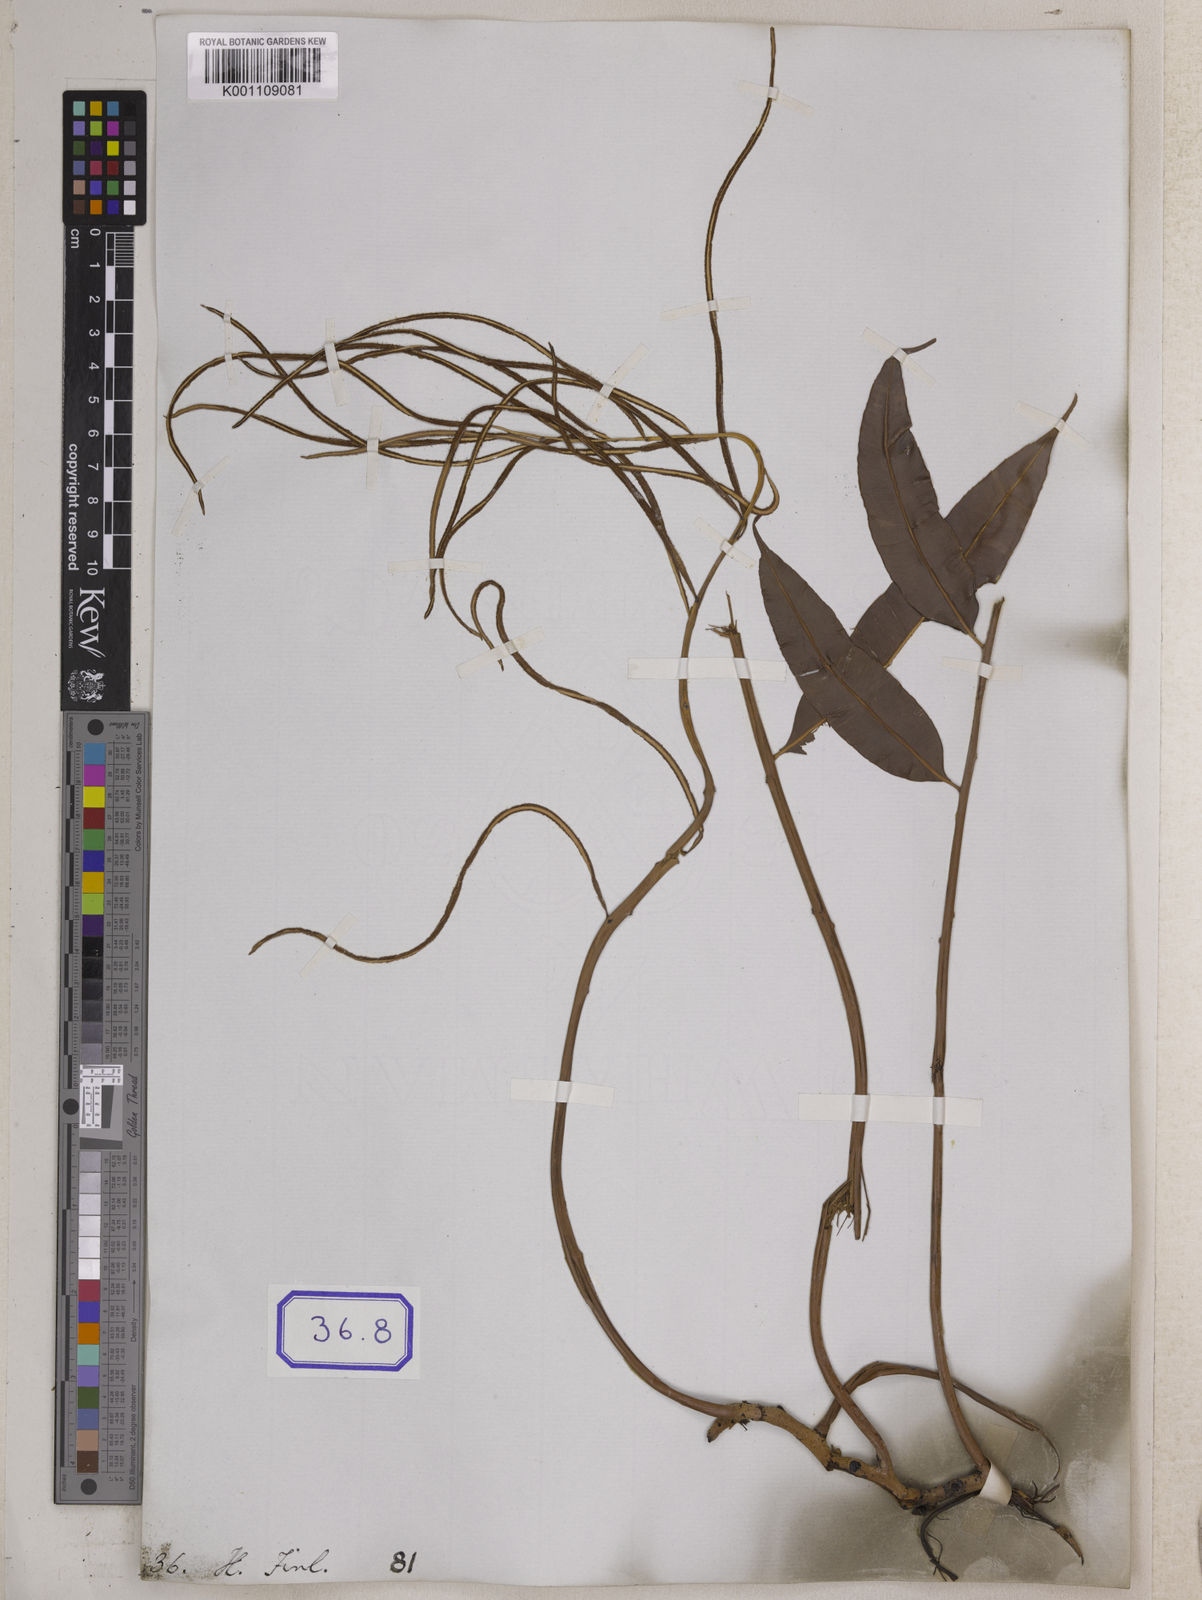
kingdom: Plantae
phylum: Tracheophyta
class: Polypodiopsida
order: Polypodiales
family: Blechnaceae
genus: Stenochlaena
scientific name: Stenochlaena palustris
